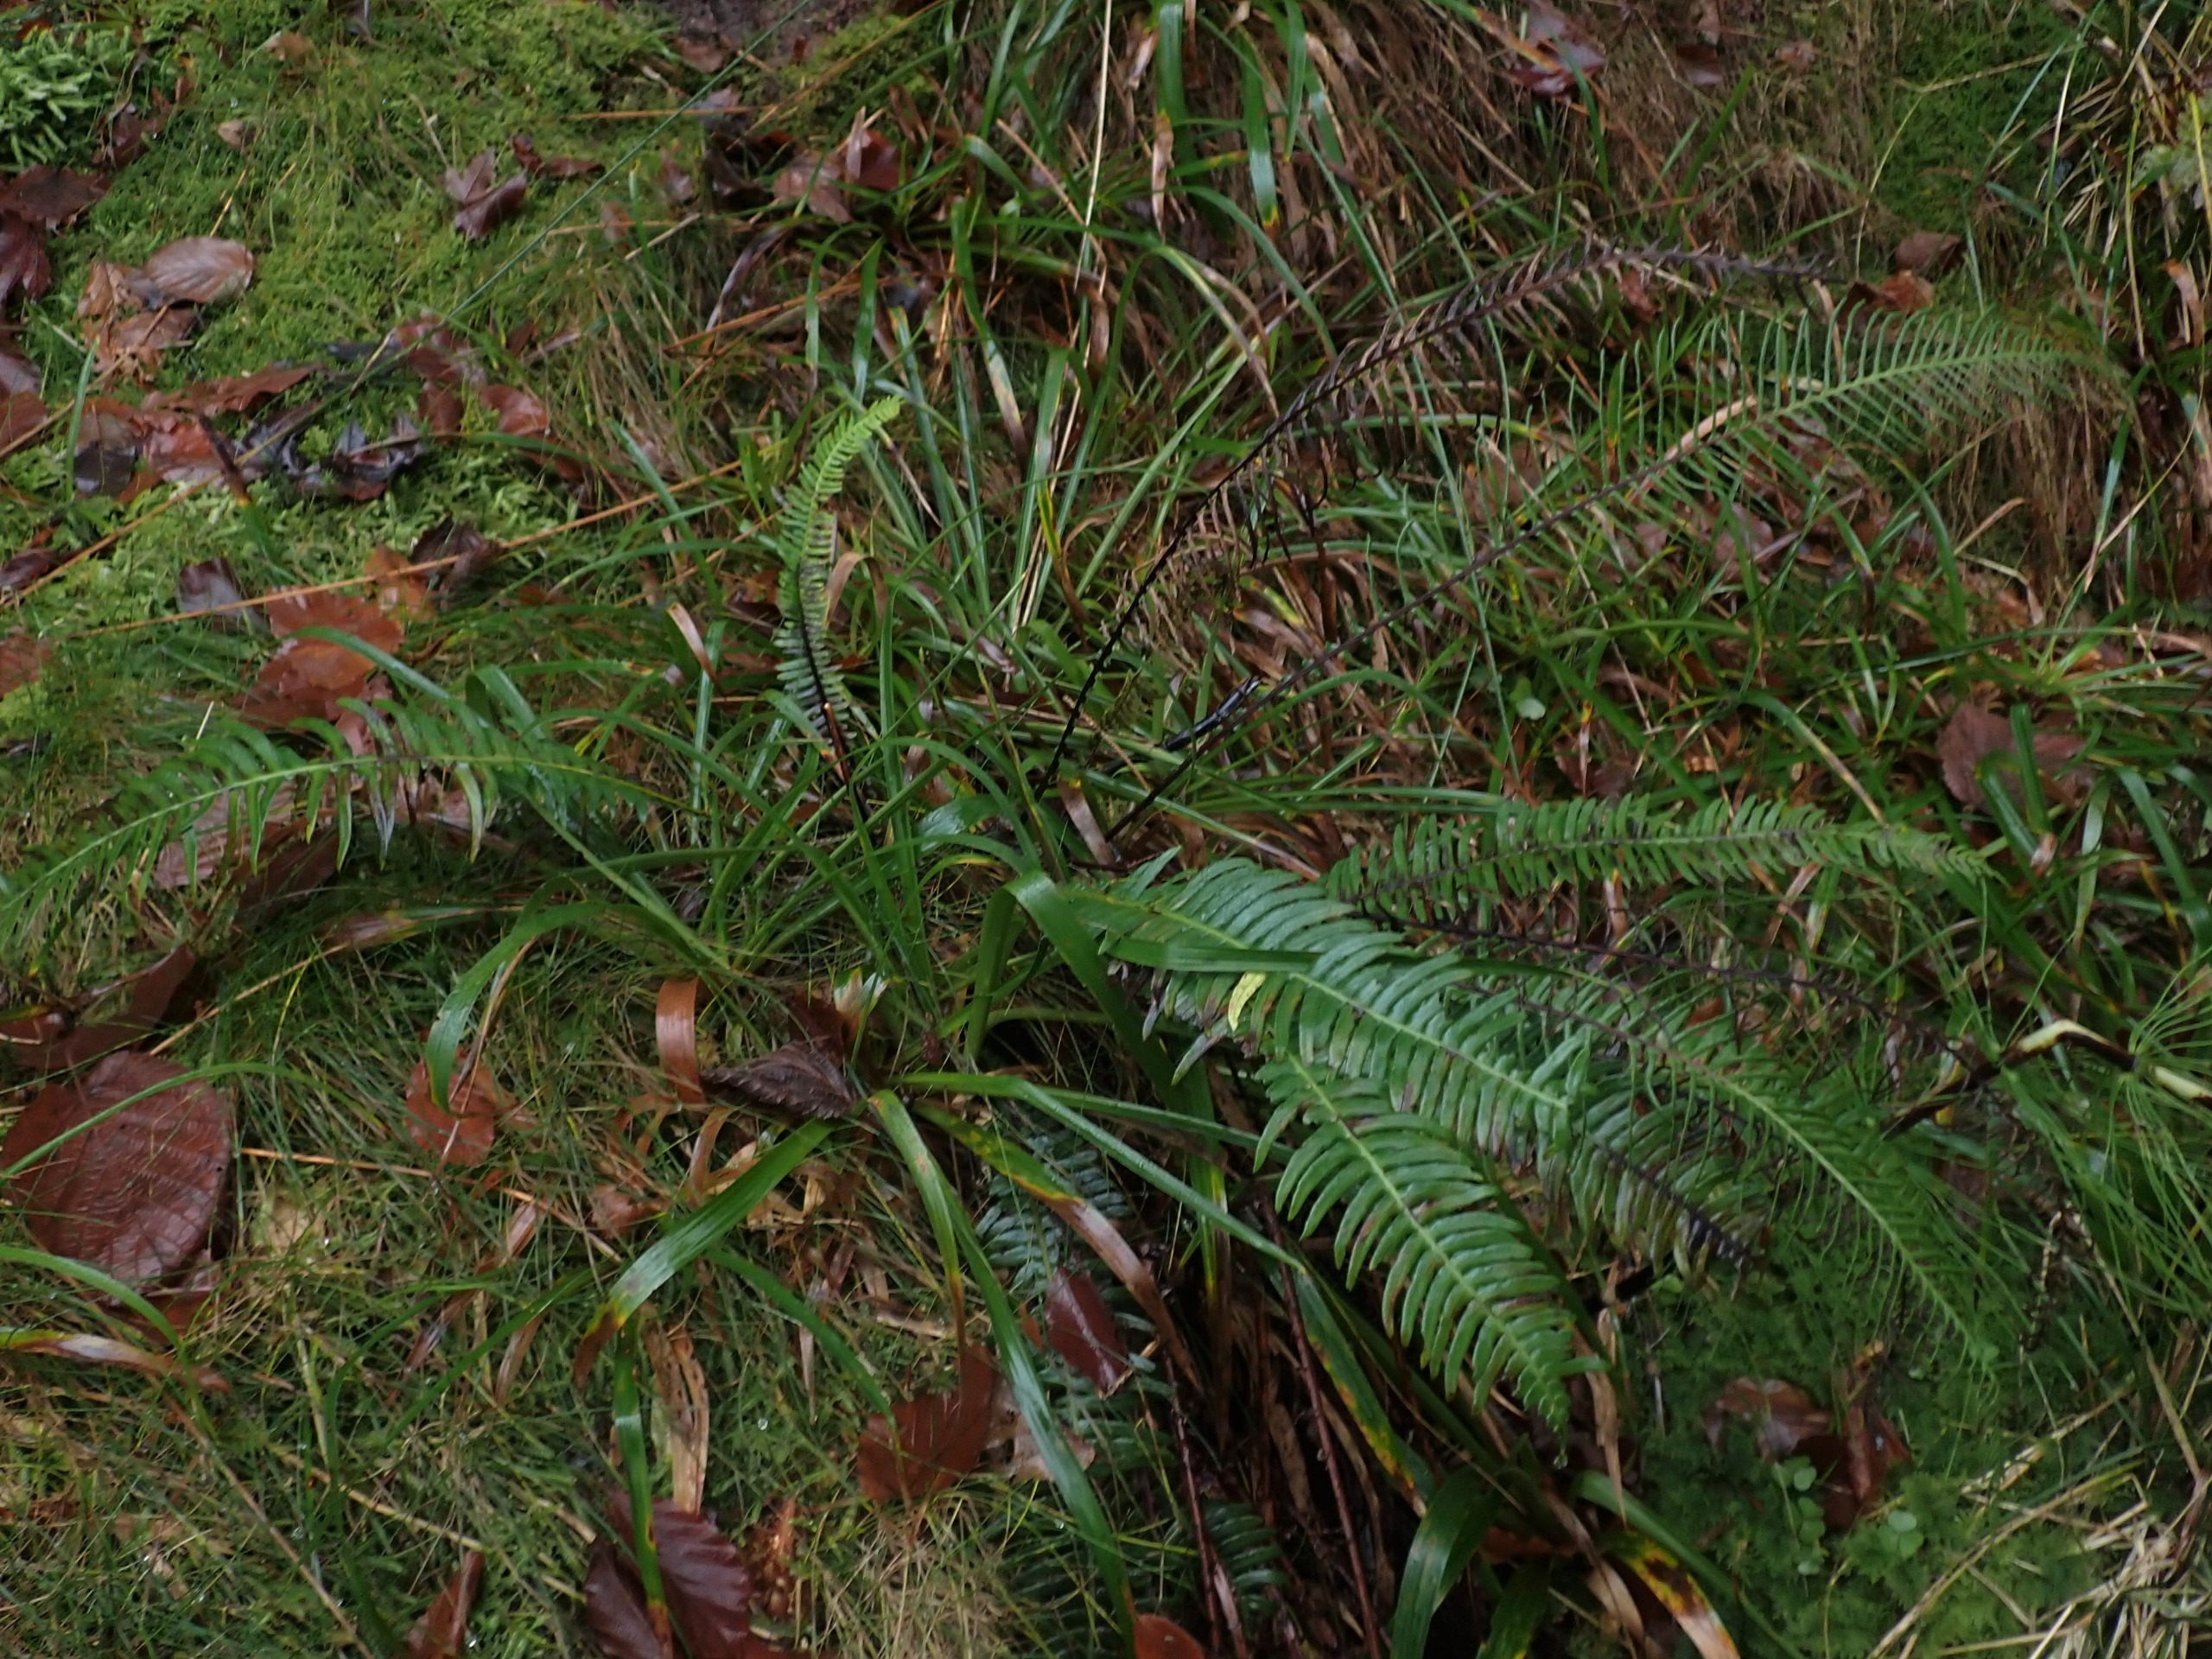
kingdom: Plantae
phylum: Tracheophyta
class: Polypodiopsida
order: Polypodiales
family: Blechnaceae
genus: Struthiopteris
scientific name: Struthiopteris spicant
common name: Kambregne
